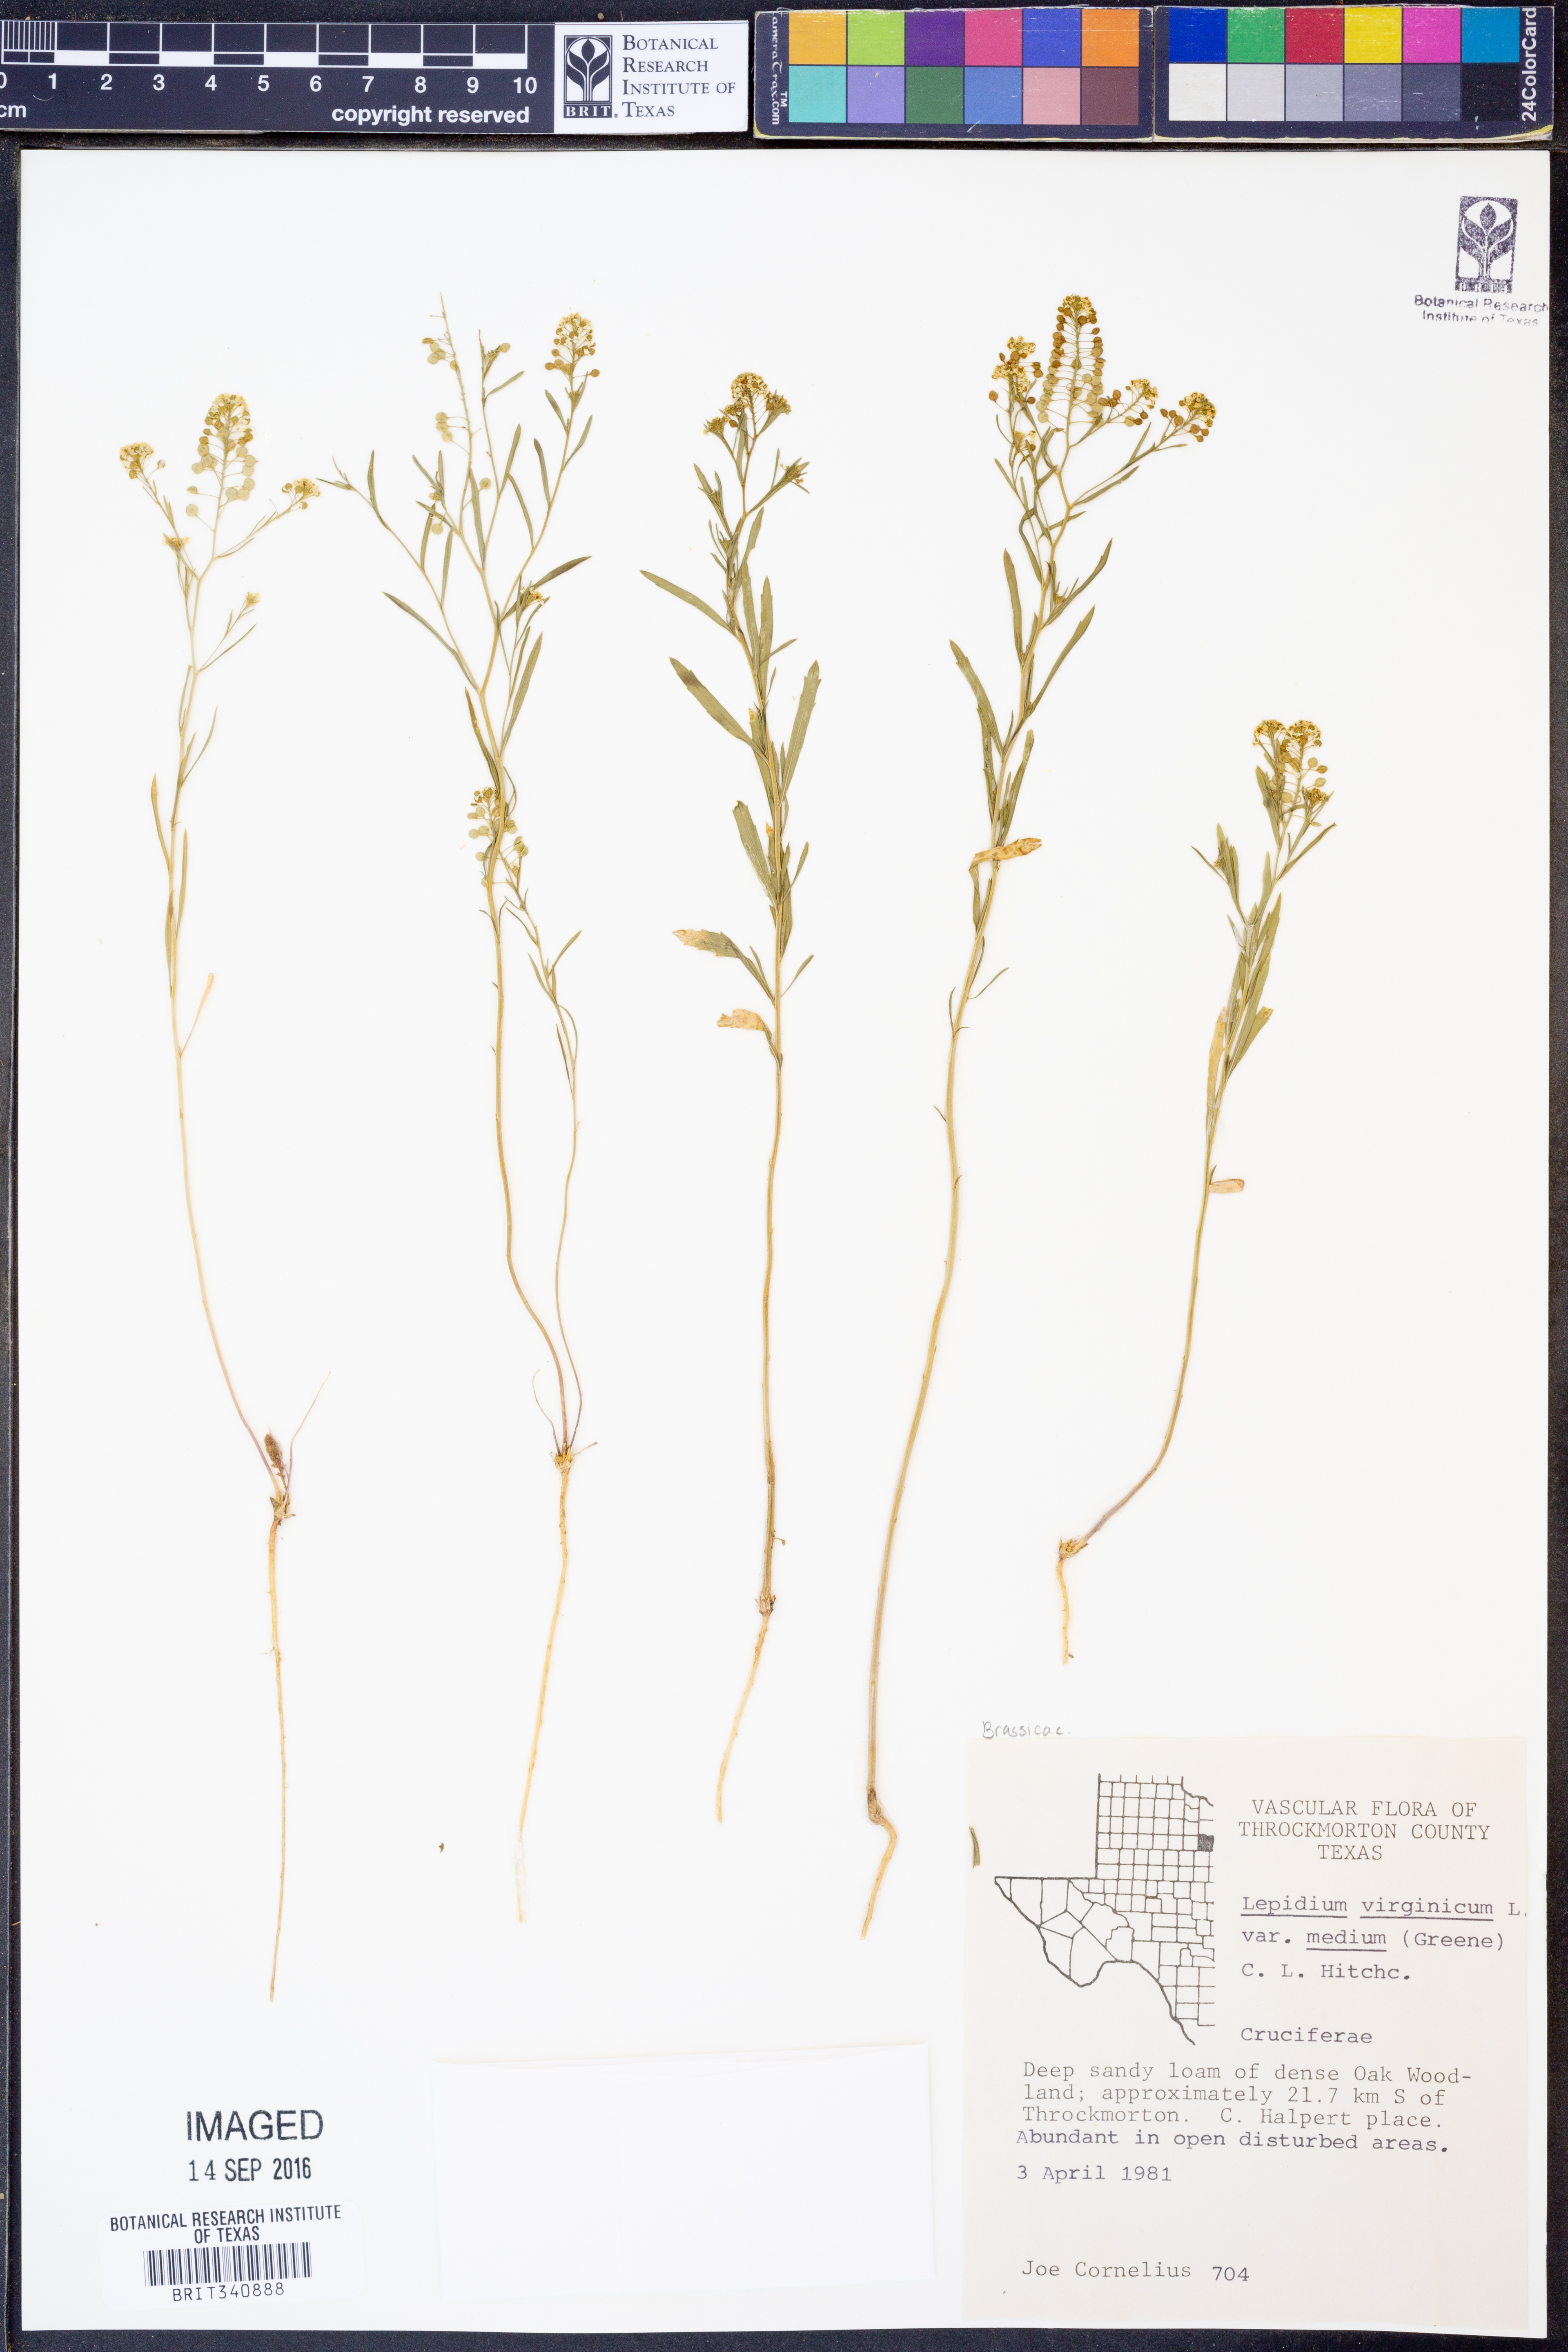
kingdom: Plantae
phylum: Tracheophyta
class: Magnoliopsida
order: Brassicales
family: Brassicaceae
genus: Lepidium
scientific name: Lepidium virginicum
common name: Least pepperwort
